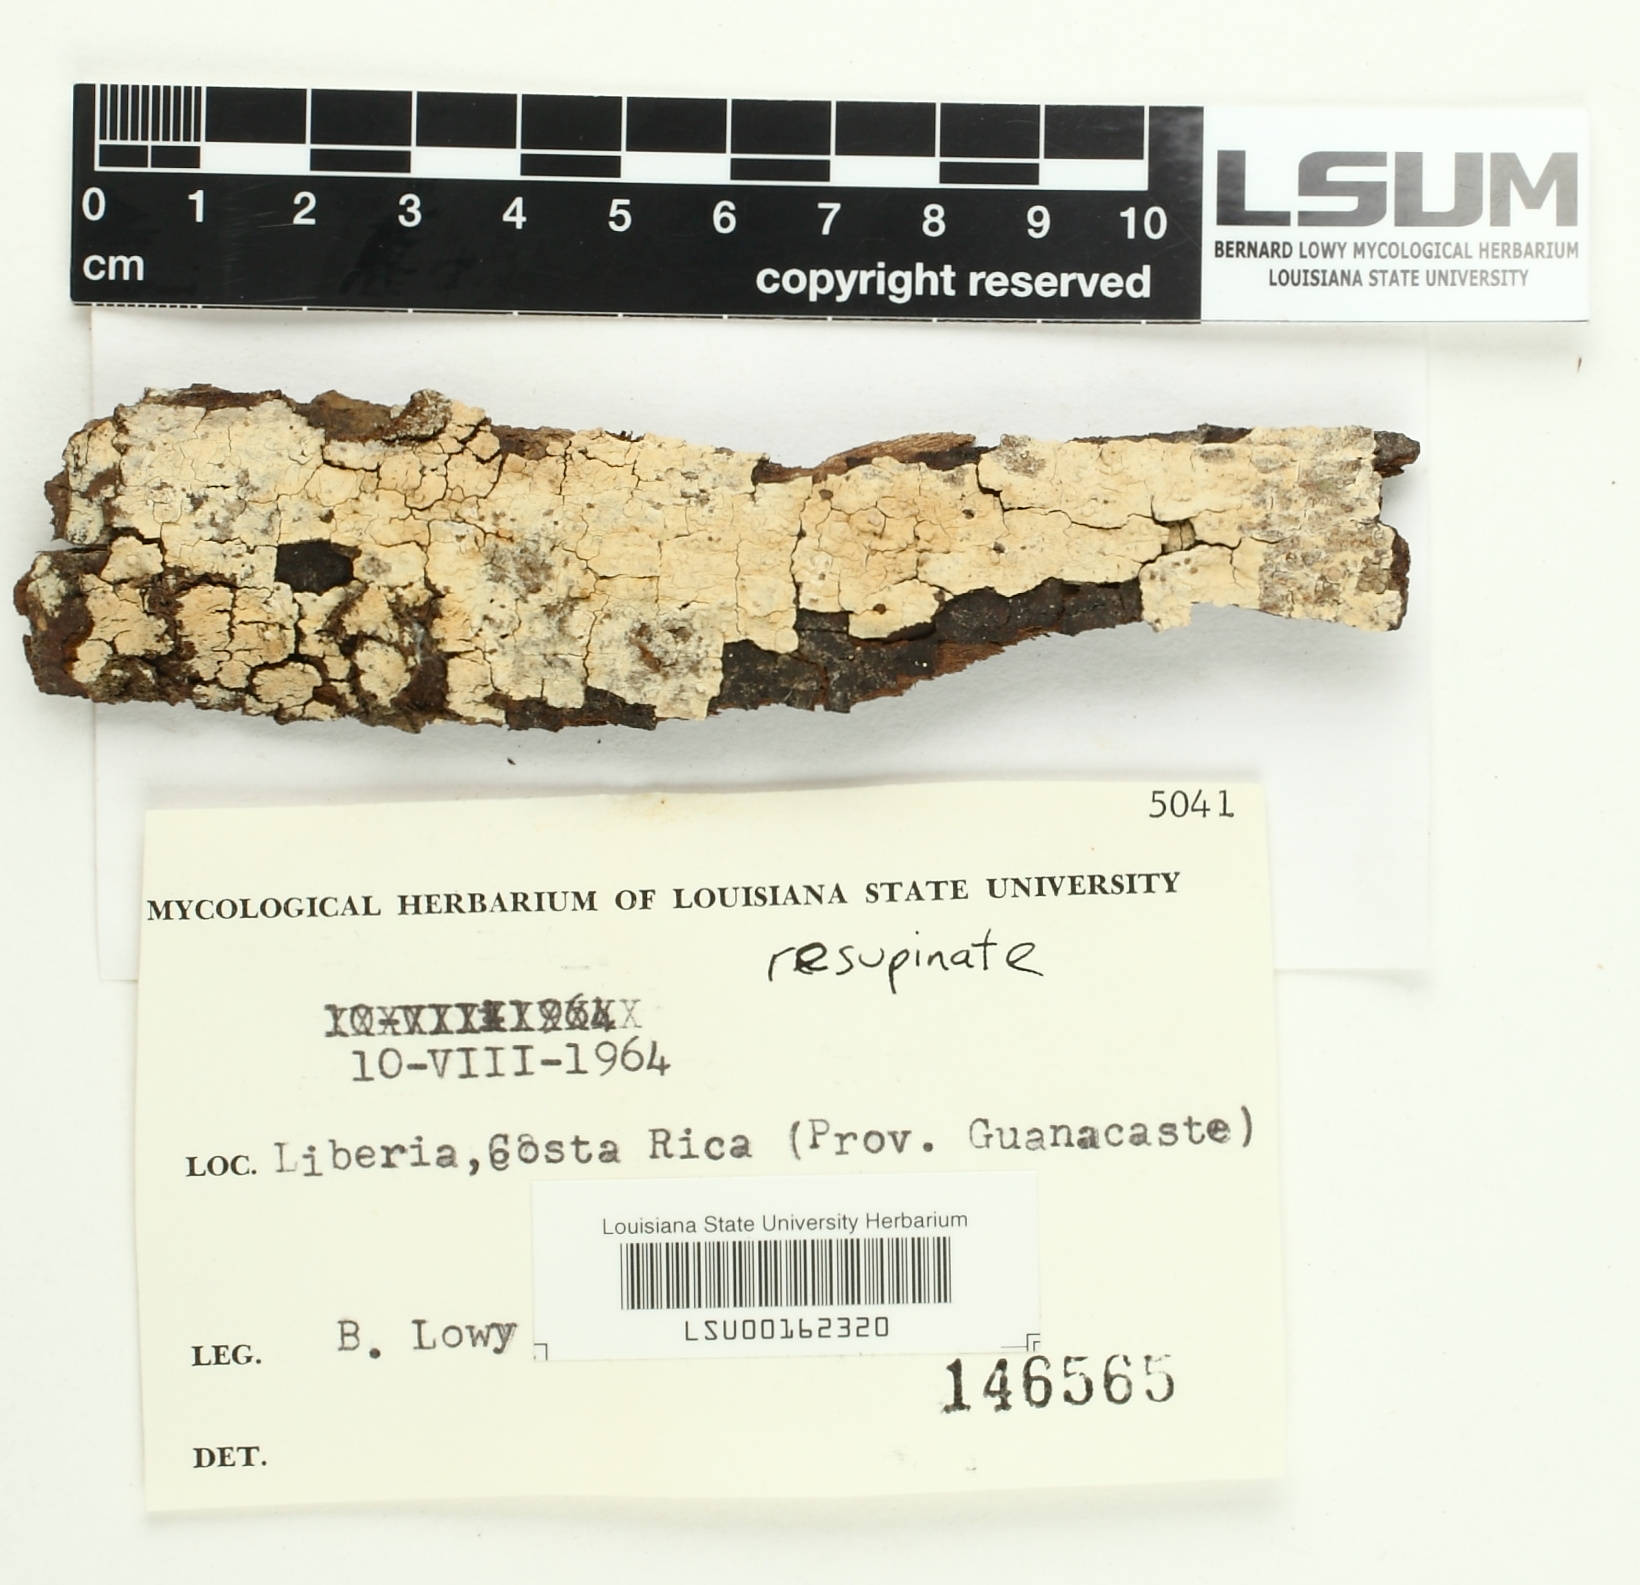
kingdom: Fungi
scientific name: Fungi
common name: Fungi
